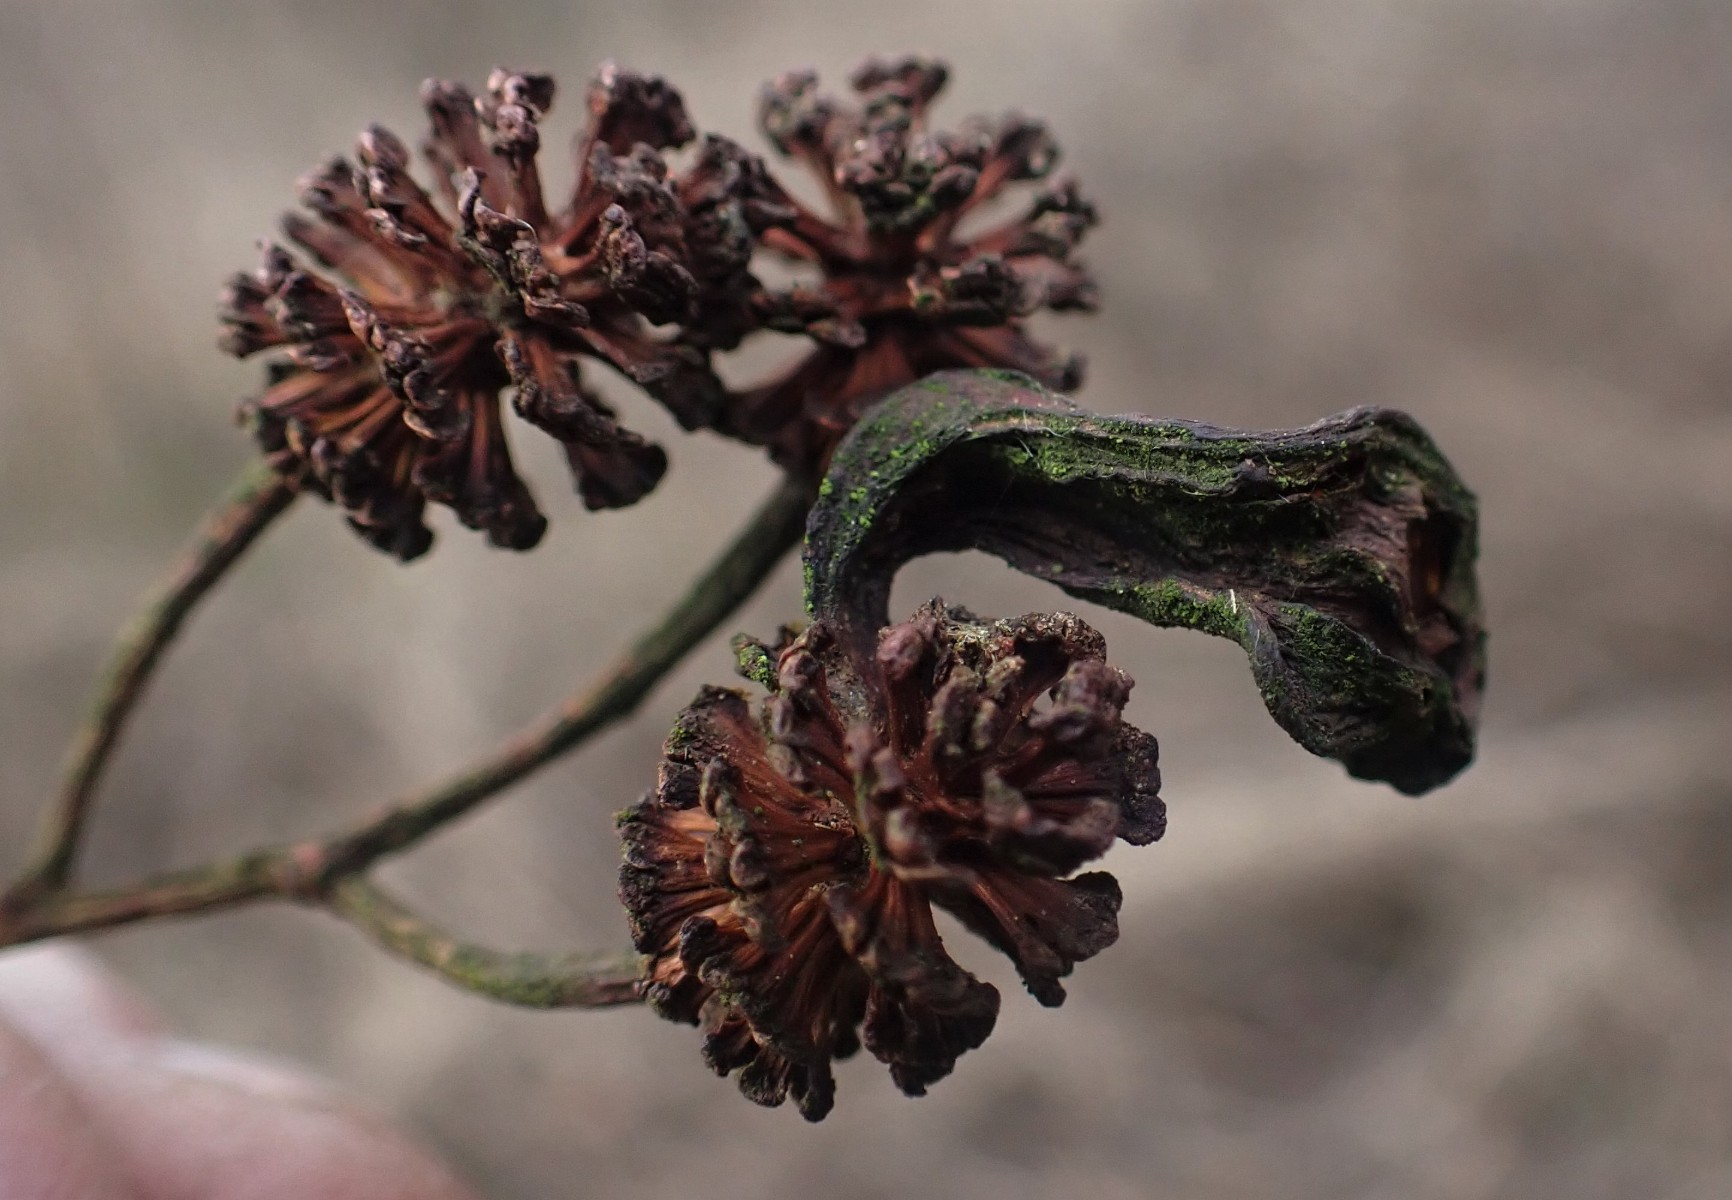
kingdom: Fungi
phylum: Ascomycota
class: Taphrinomycetes
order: Taphrinales
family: Taphrinaceae
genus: Taphrina
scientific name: Taphrina alni
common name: Alder tongue
